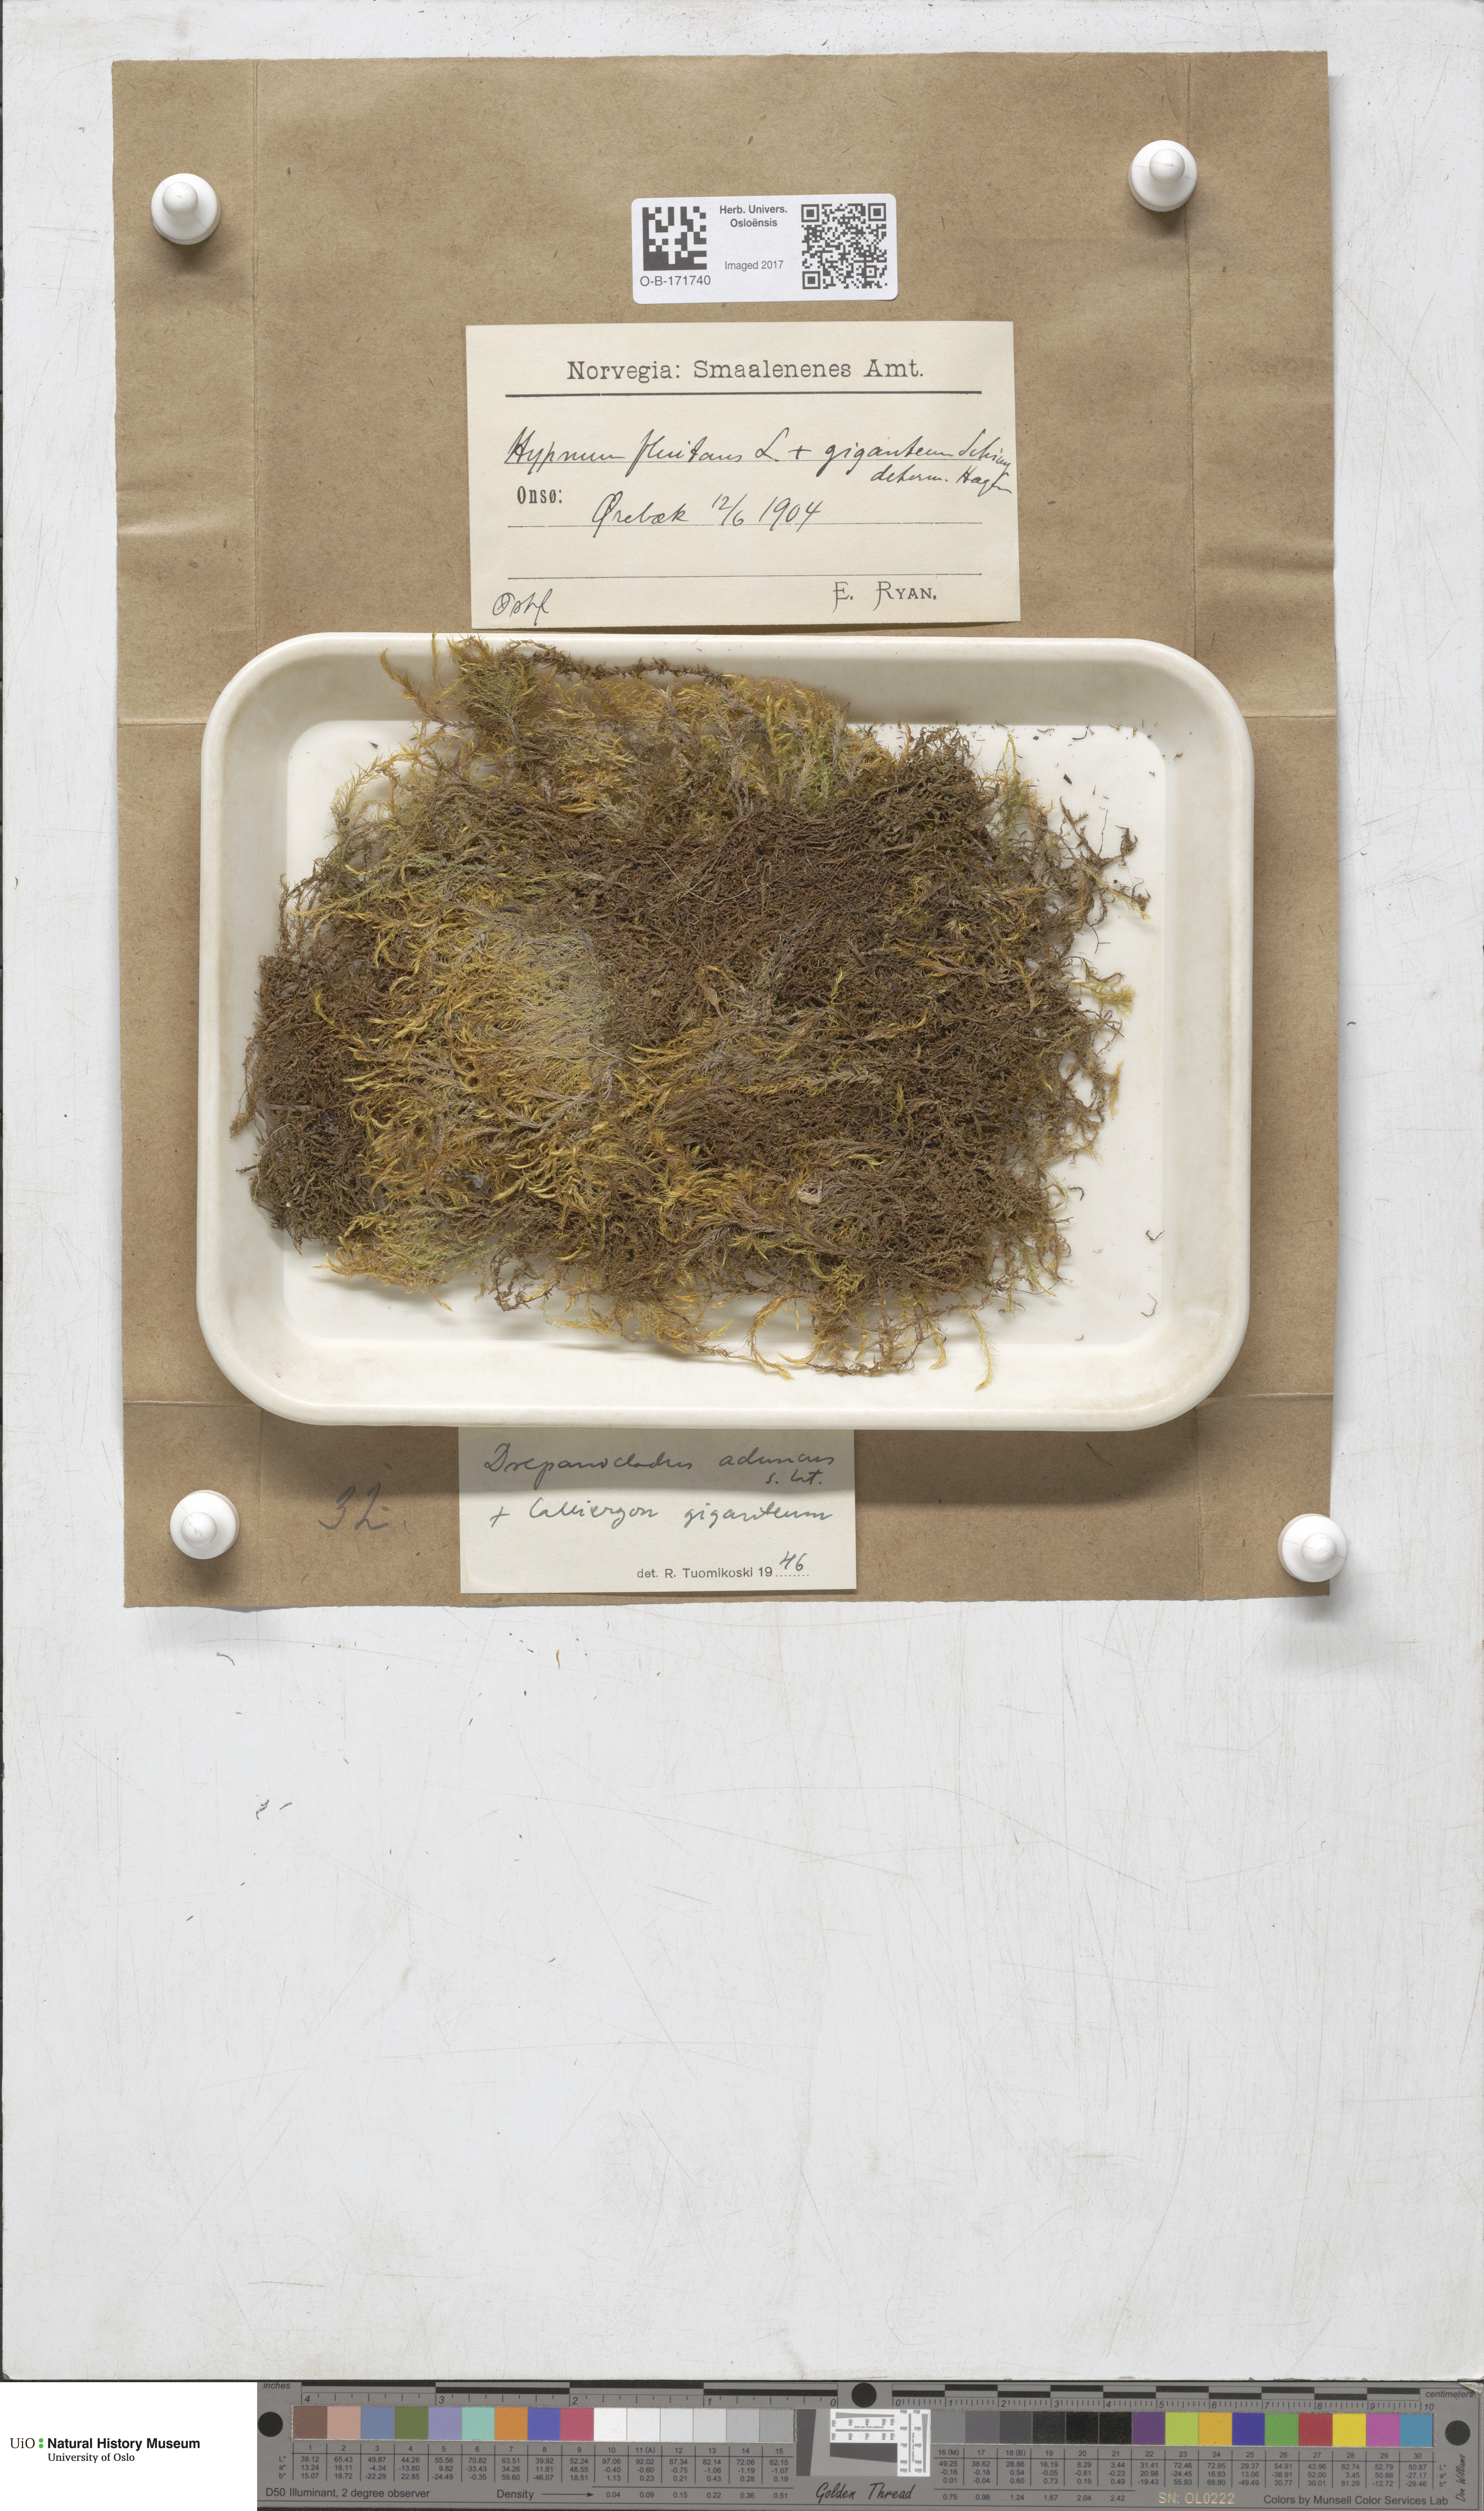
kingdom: Plantae
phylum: Bryophyta
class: Bryopsida
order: Hypnales
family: Amblystegiaceae
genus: Drepanocladus
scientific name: Drepanocladus aduncus
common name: Knieff's hook moss
